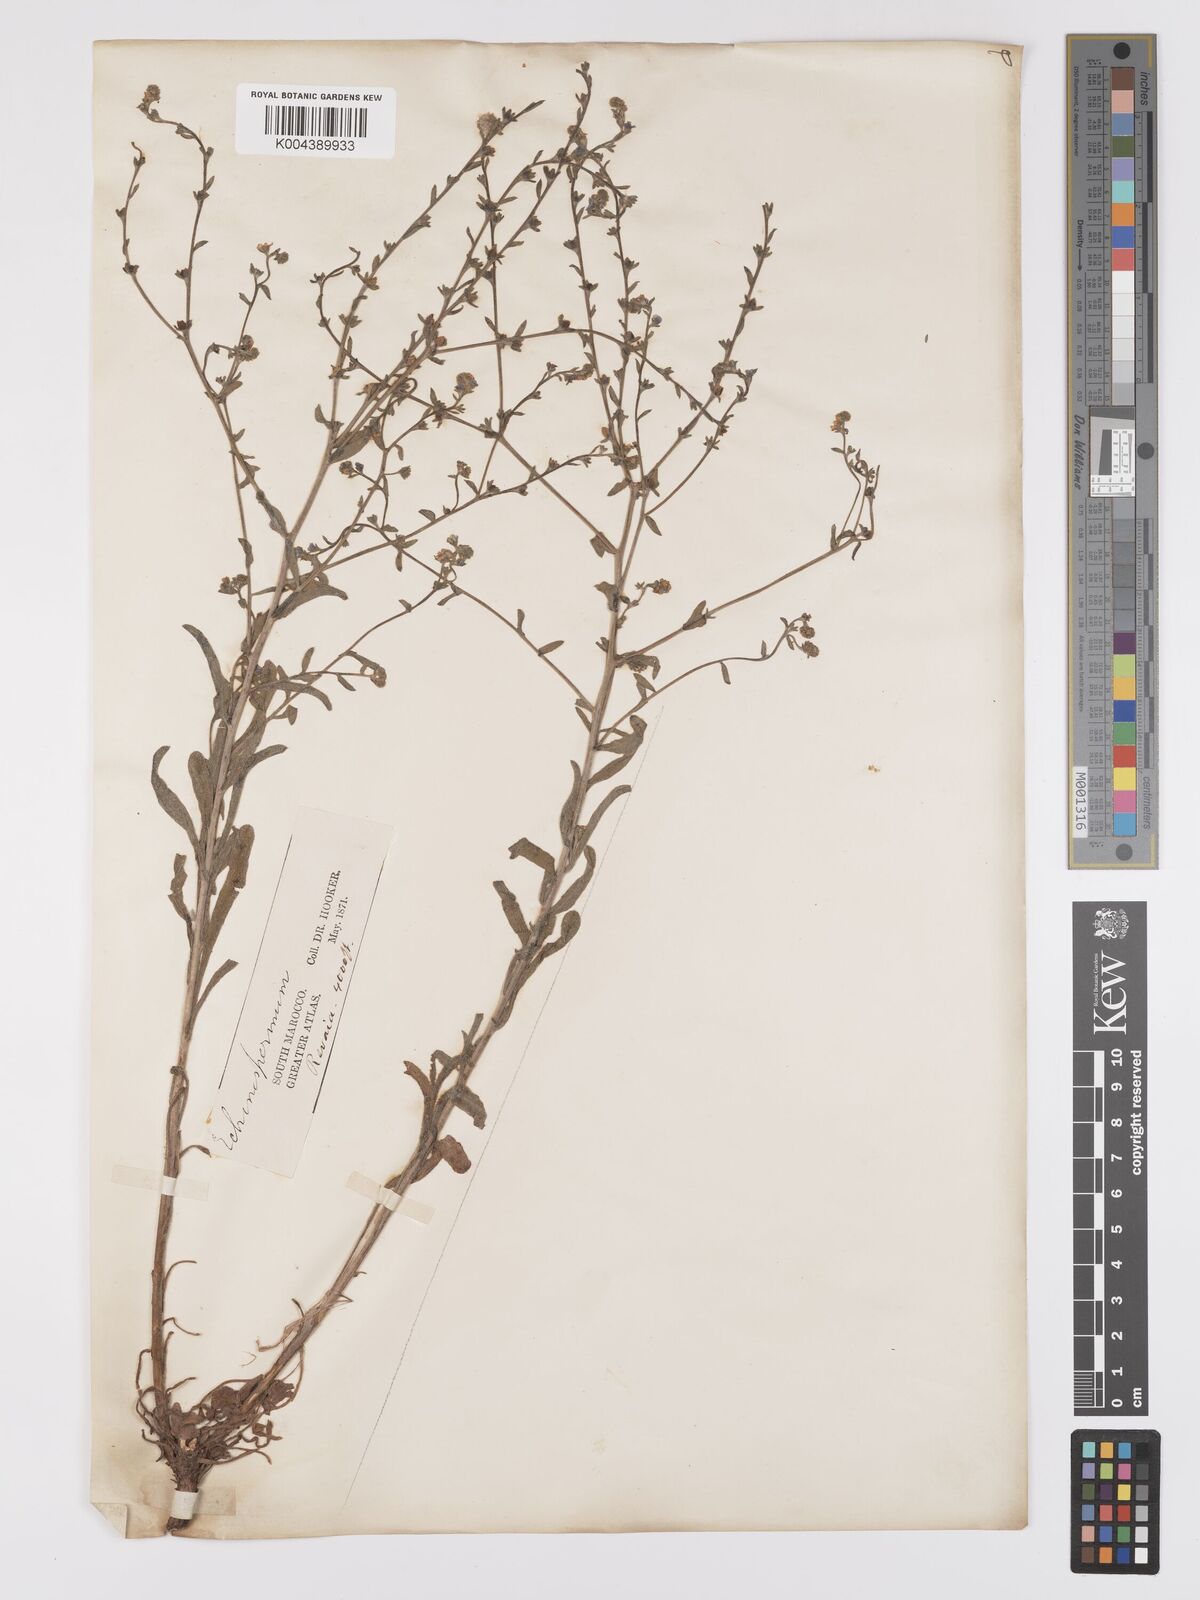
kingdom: Plantae
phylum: Tracheophyta
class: Magnoliopsida
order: Boraginales
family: Boraginaceae
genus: Lappula
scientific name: Lappula
